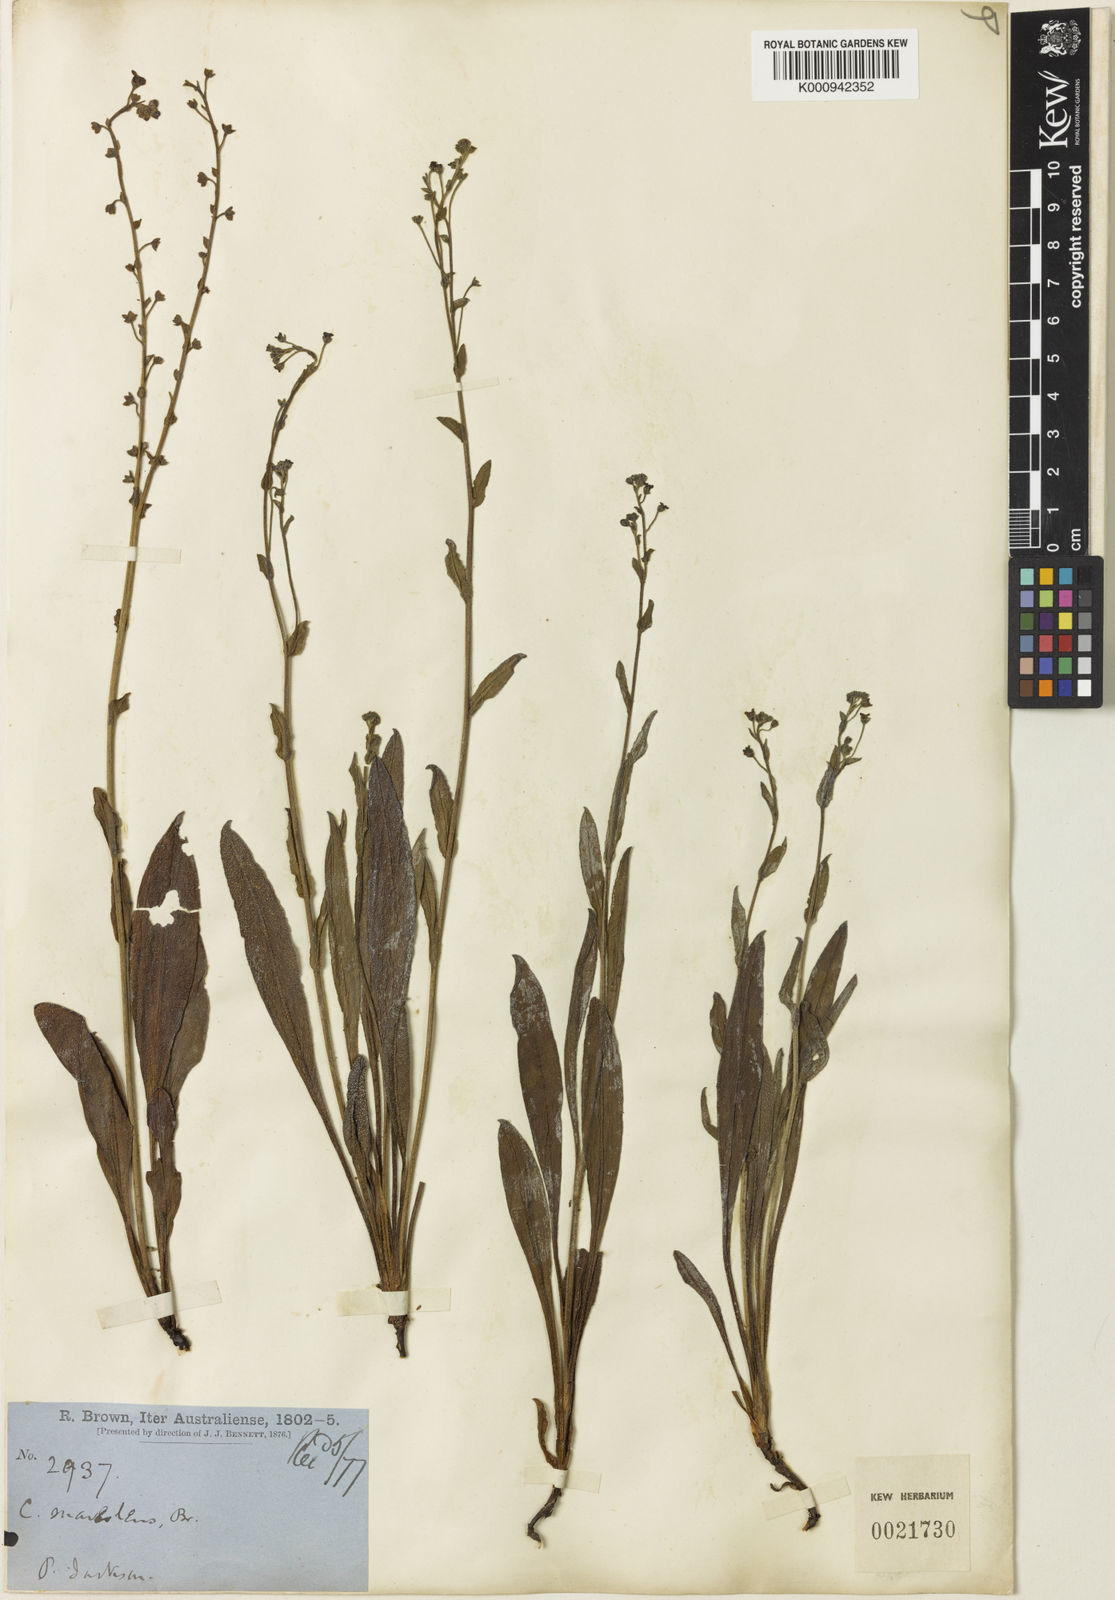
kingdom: Plantae
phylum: Tracheophyta
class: Magnoliopsida
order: Boraginales
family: Boraginaceae
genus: Hackelia
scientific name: Hackelia suaveolens
